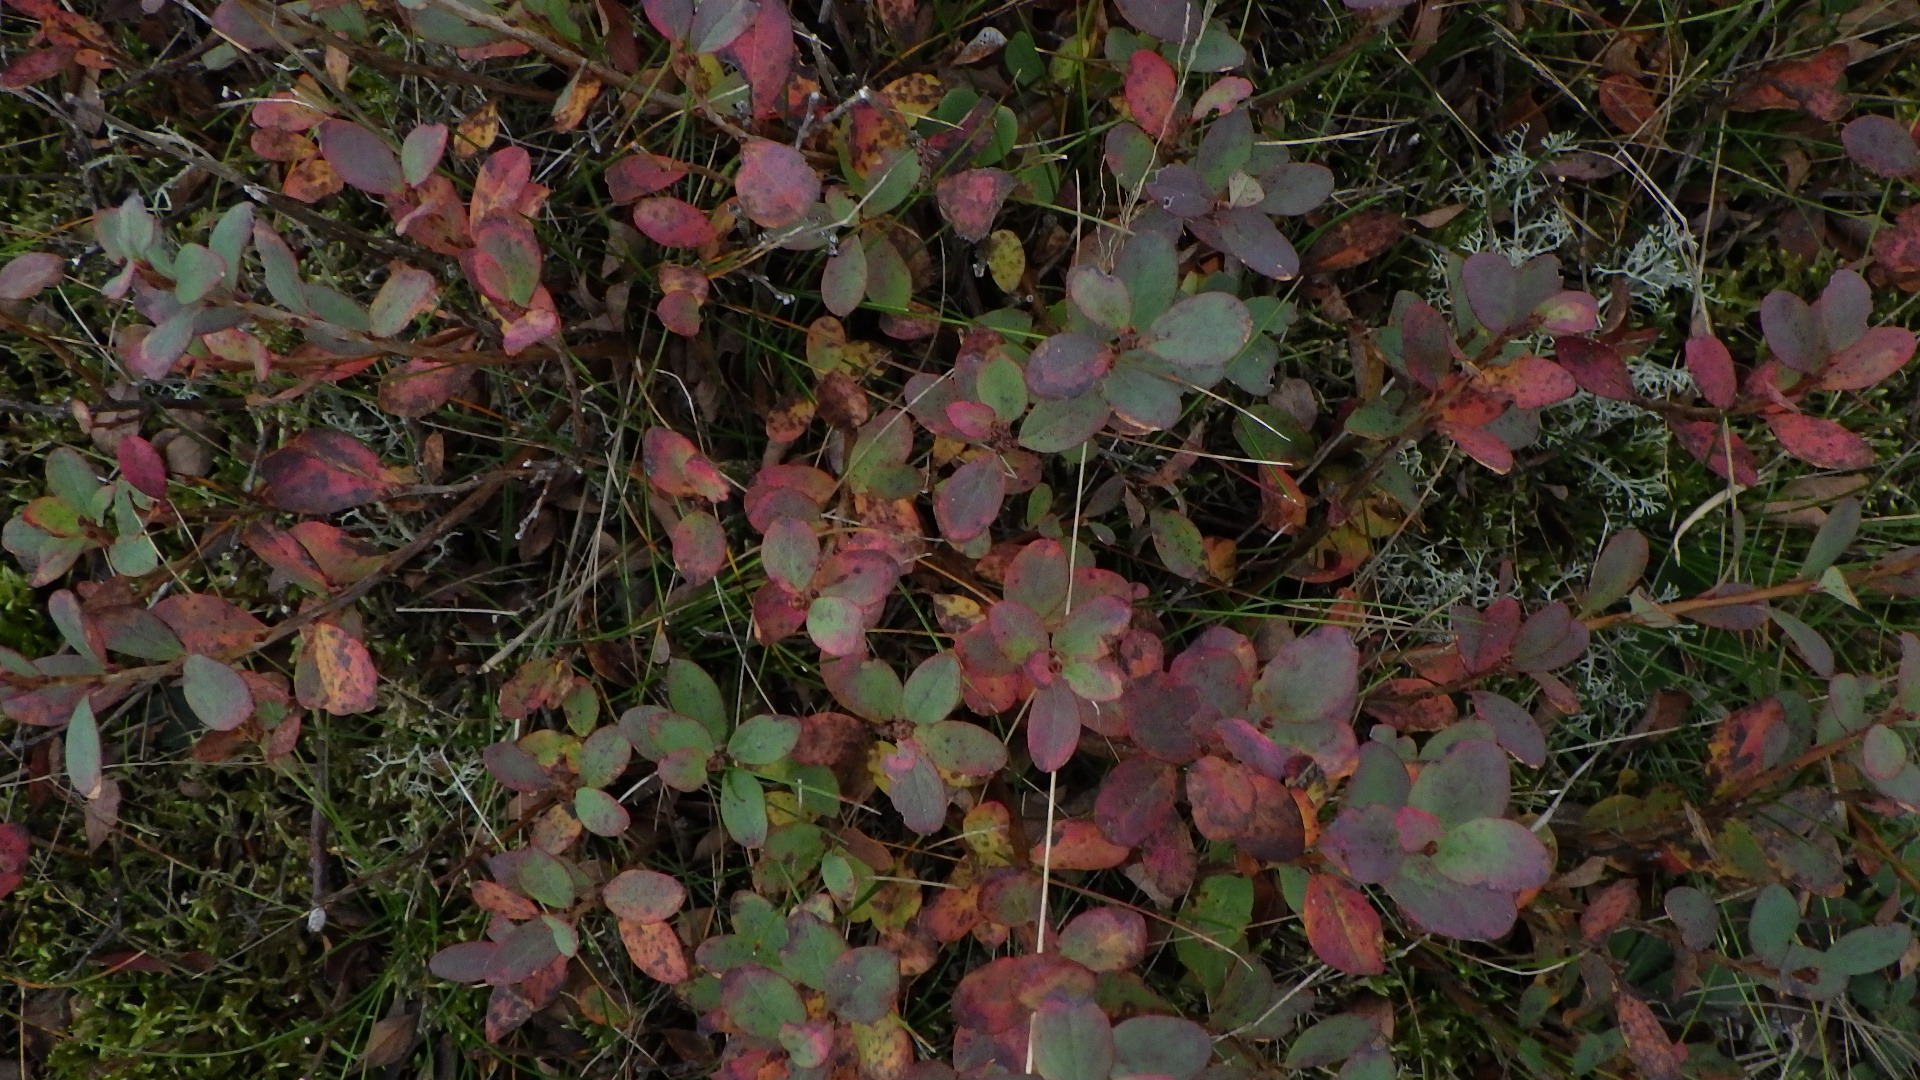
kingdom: Plantae
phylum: Tracheophyta
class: Magnoliopsida
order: Ericales
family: Ericaceae
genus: Vaccinium
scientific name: Vaccinium uliginosum
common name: Mose-bølle
